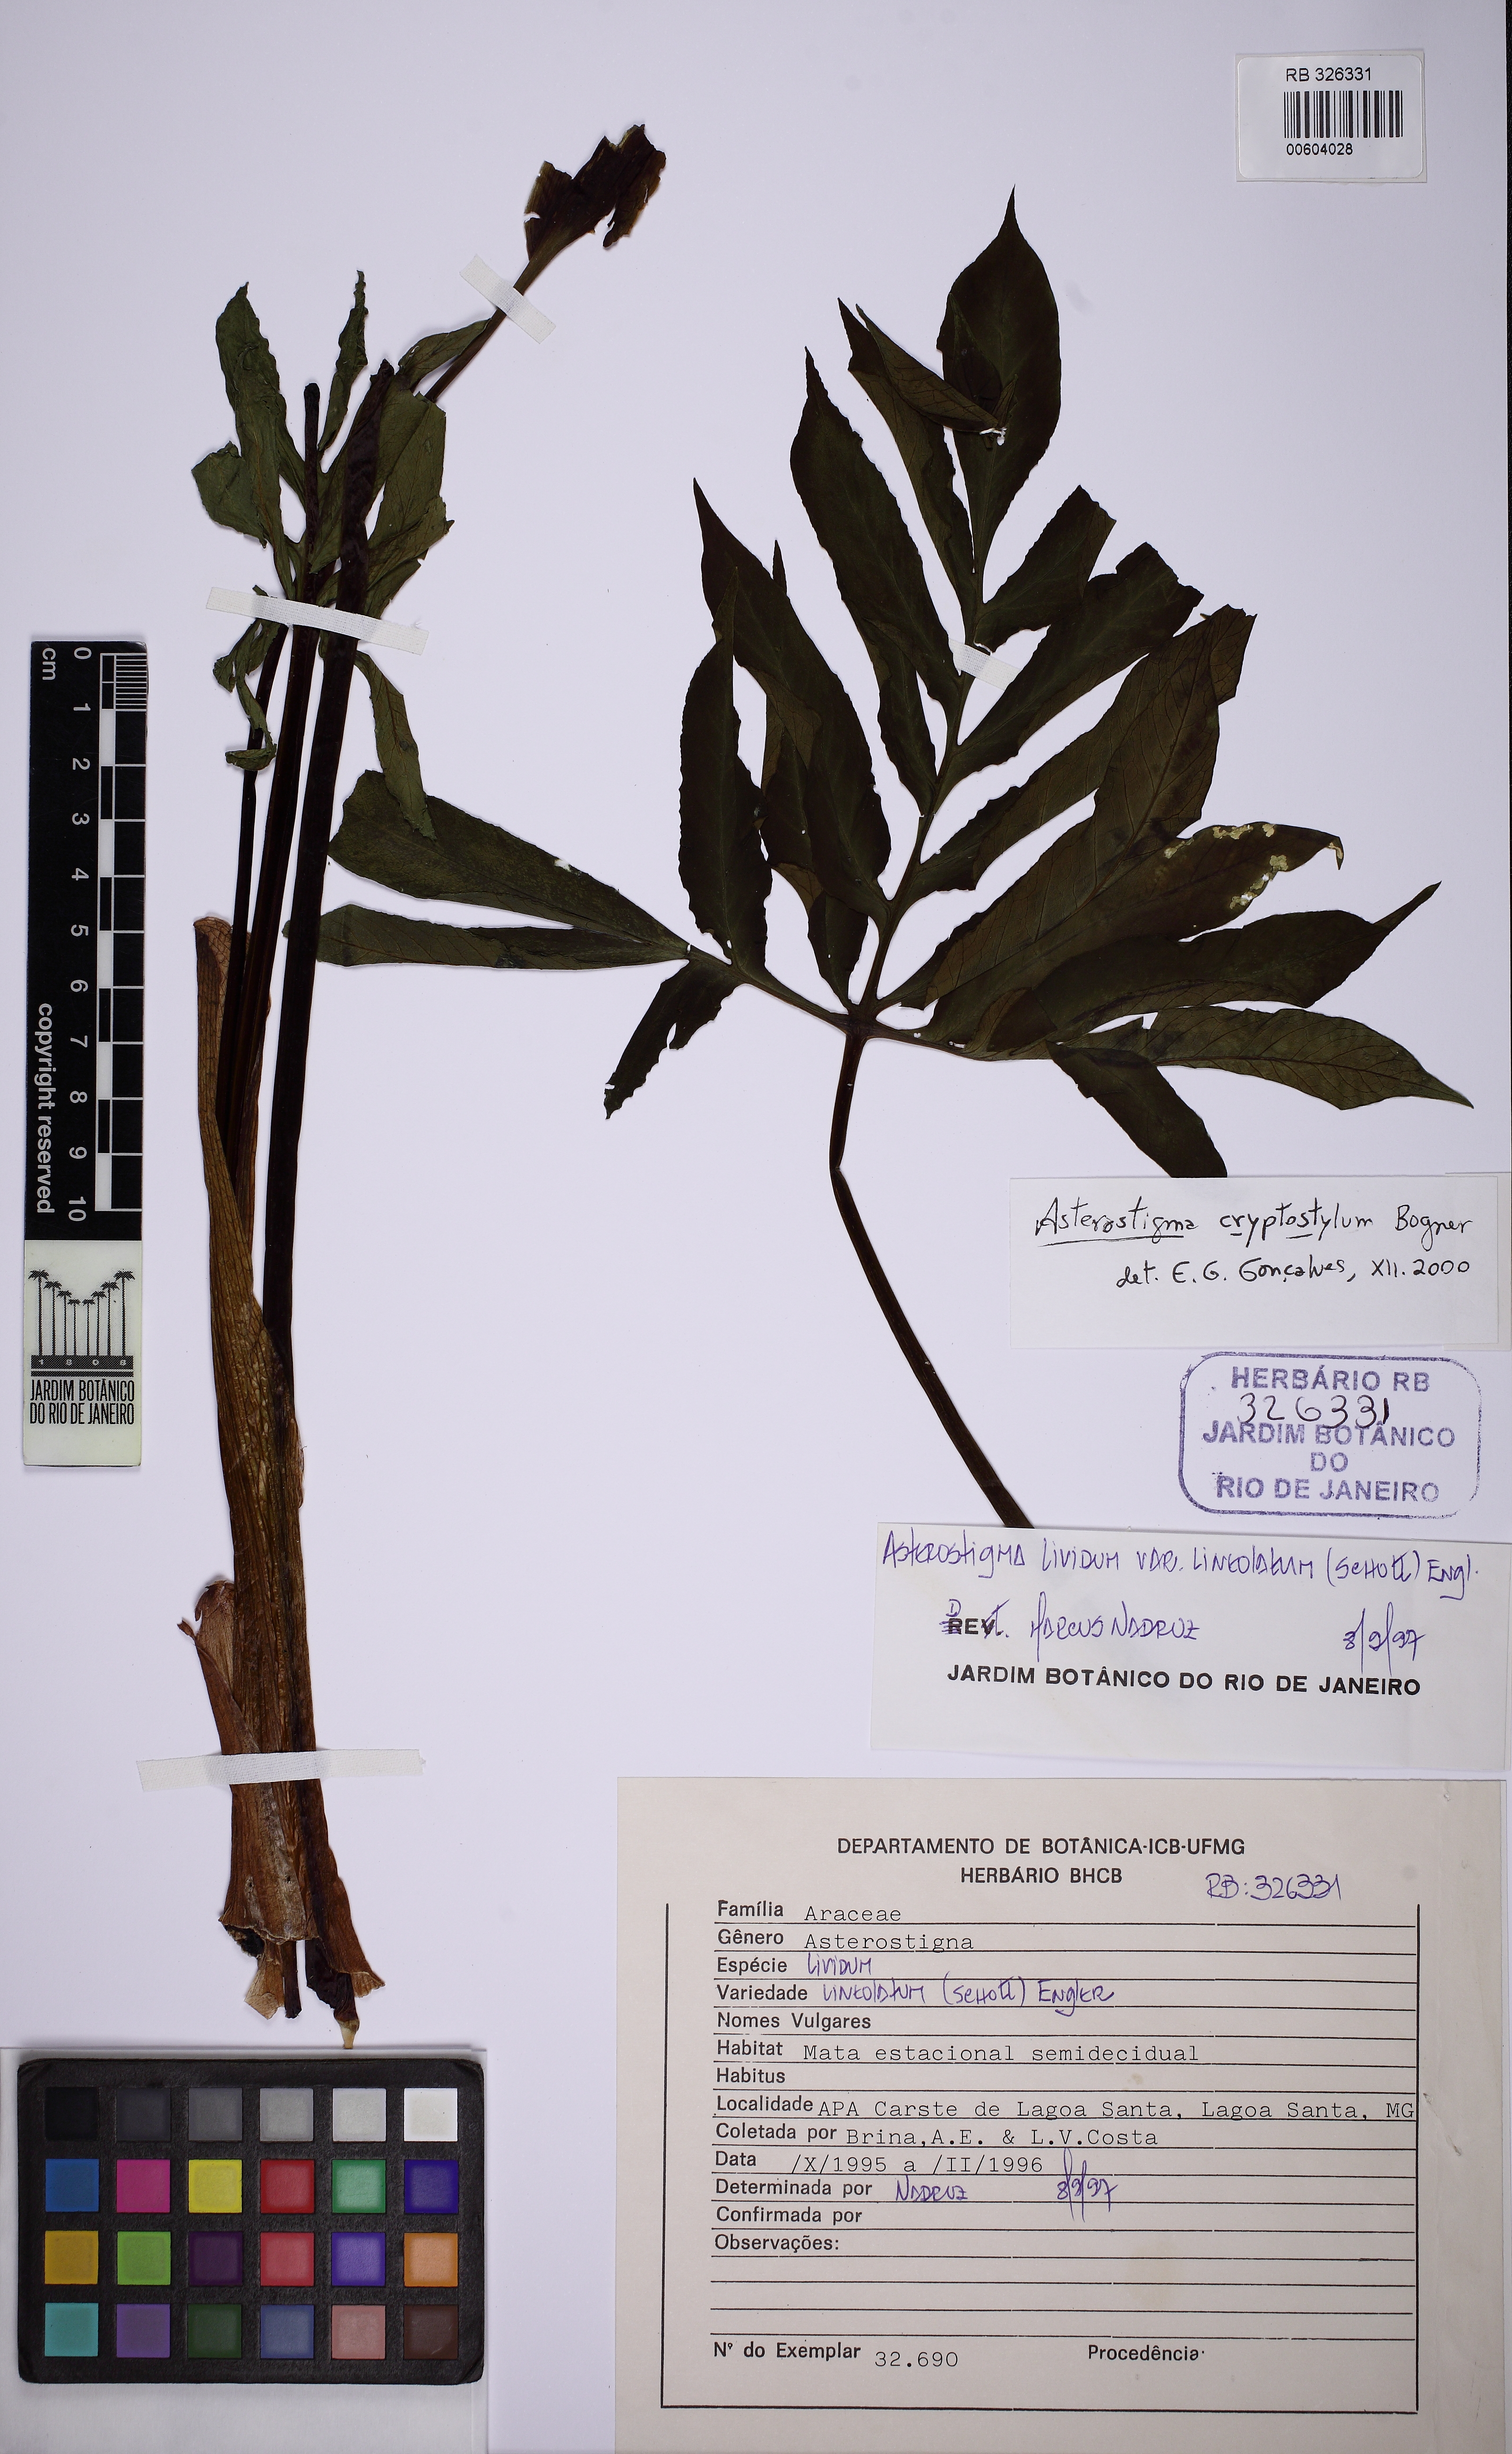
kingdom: Plantae
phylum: Tracheophyta
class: Liliopsida
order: Alismatales
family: Araceae
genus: Asterostigma
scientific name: Asterostigma cryptostylum
